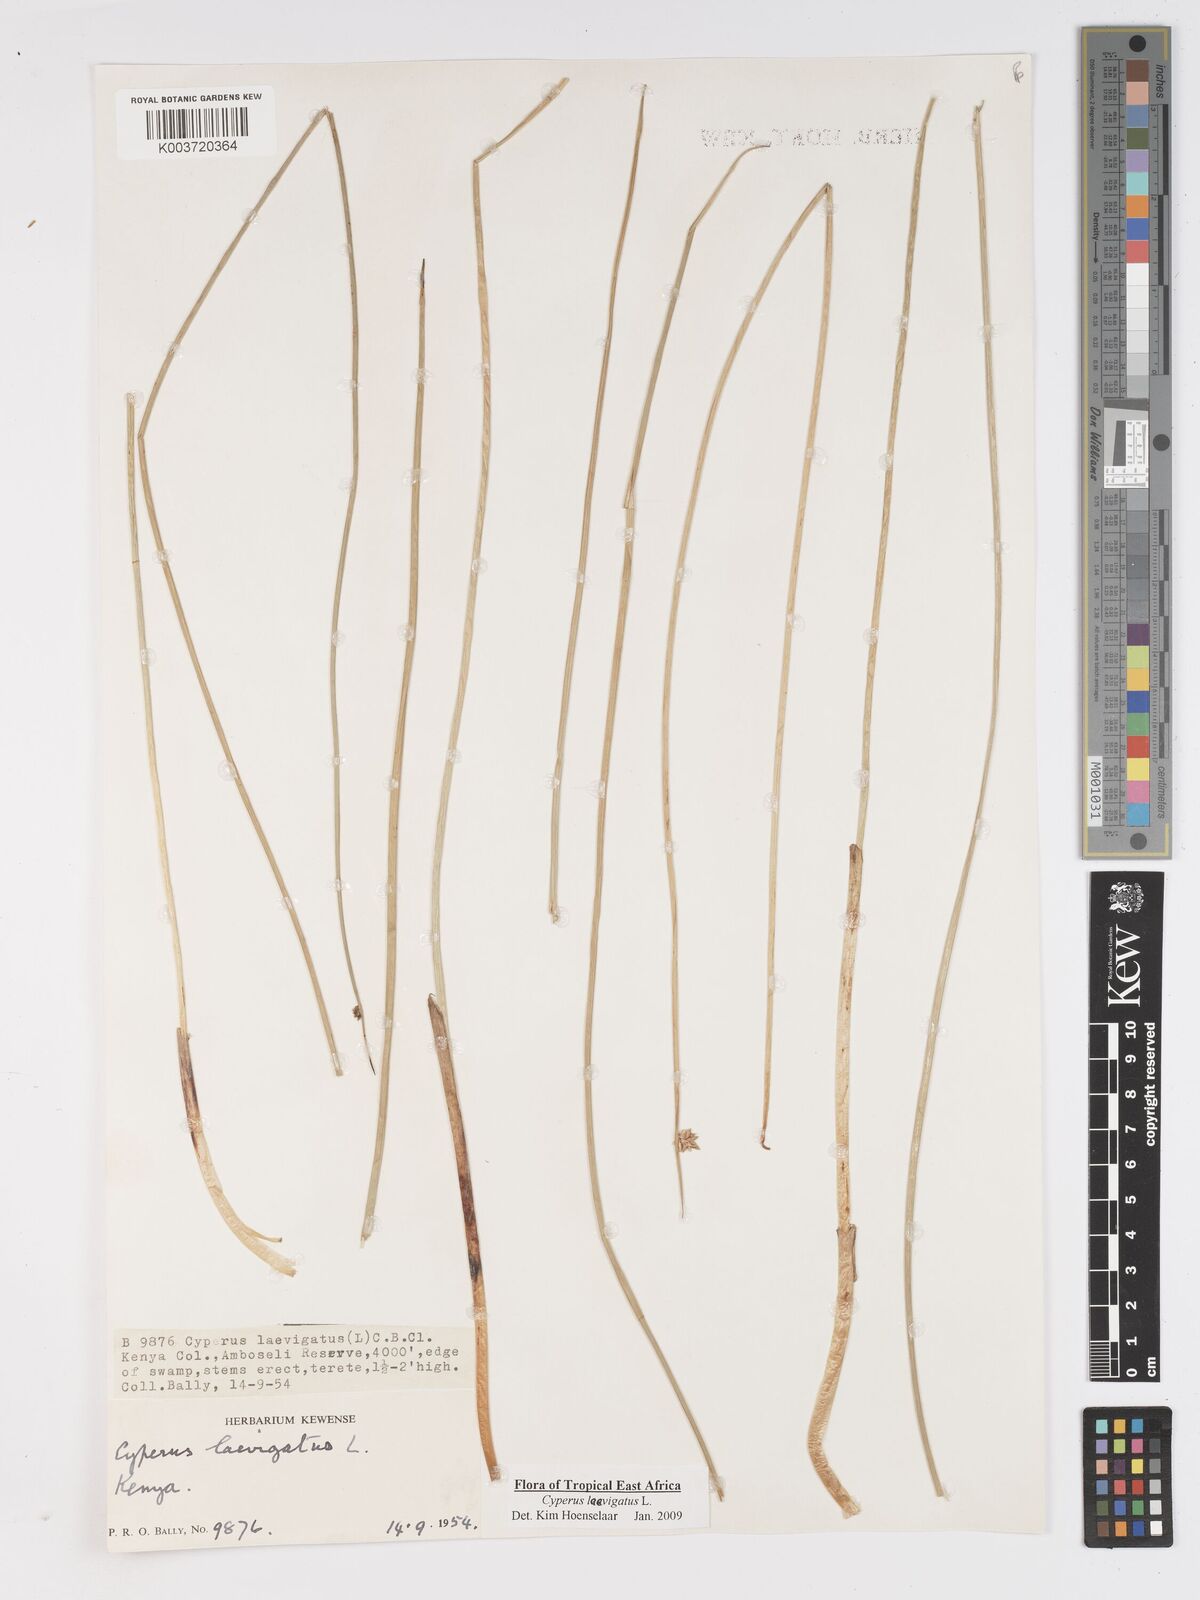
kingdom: Plantae
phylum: Tracheophyta
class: Liliopsida
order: Poales
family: Cyperaceae
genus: Cyperus
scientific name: Cyperus laevigatus
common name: Smooth flat sedge
